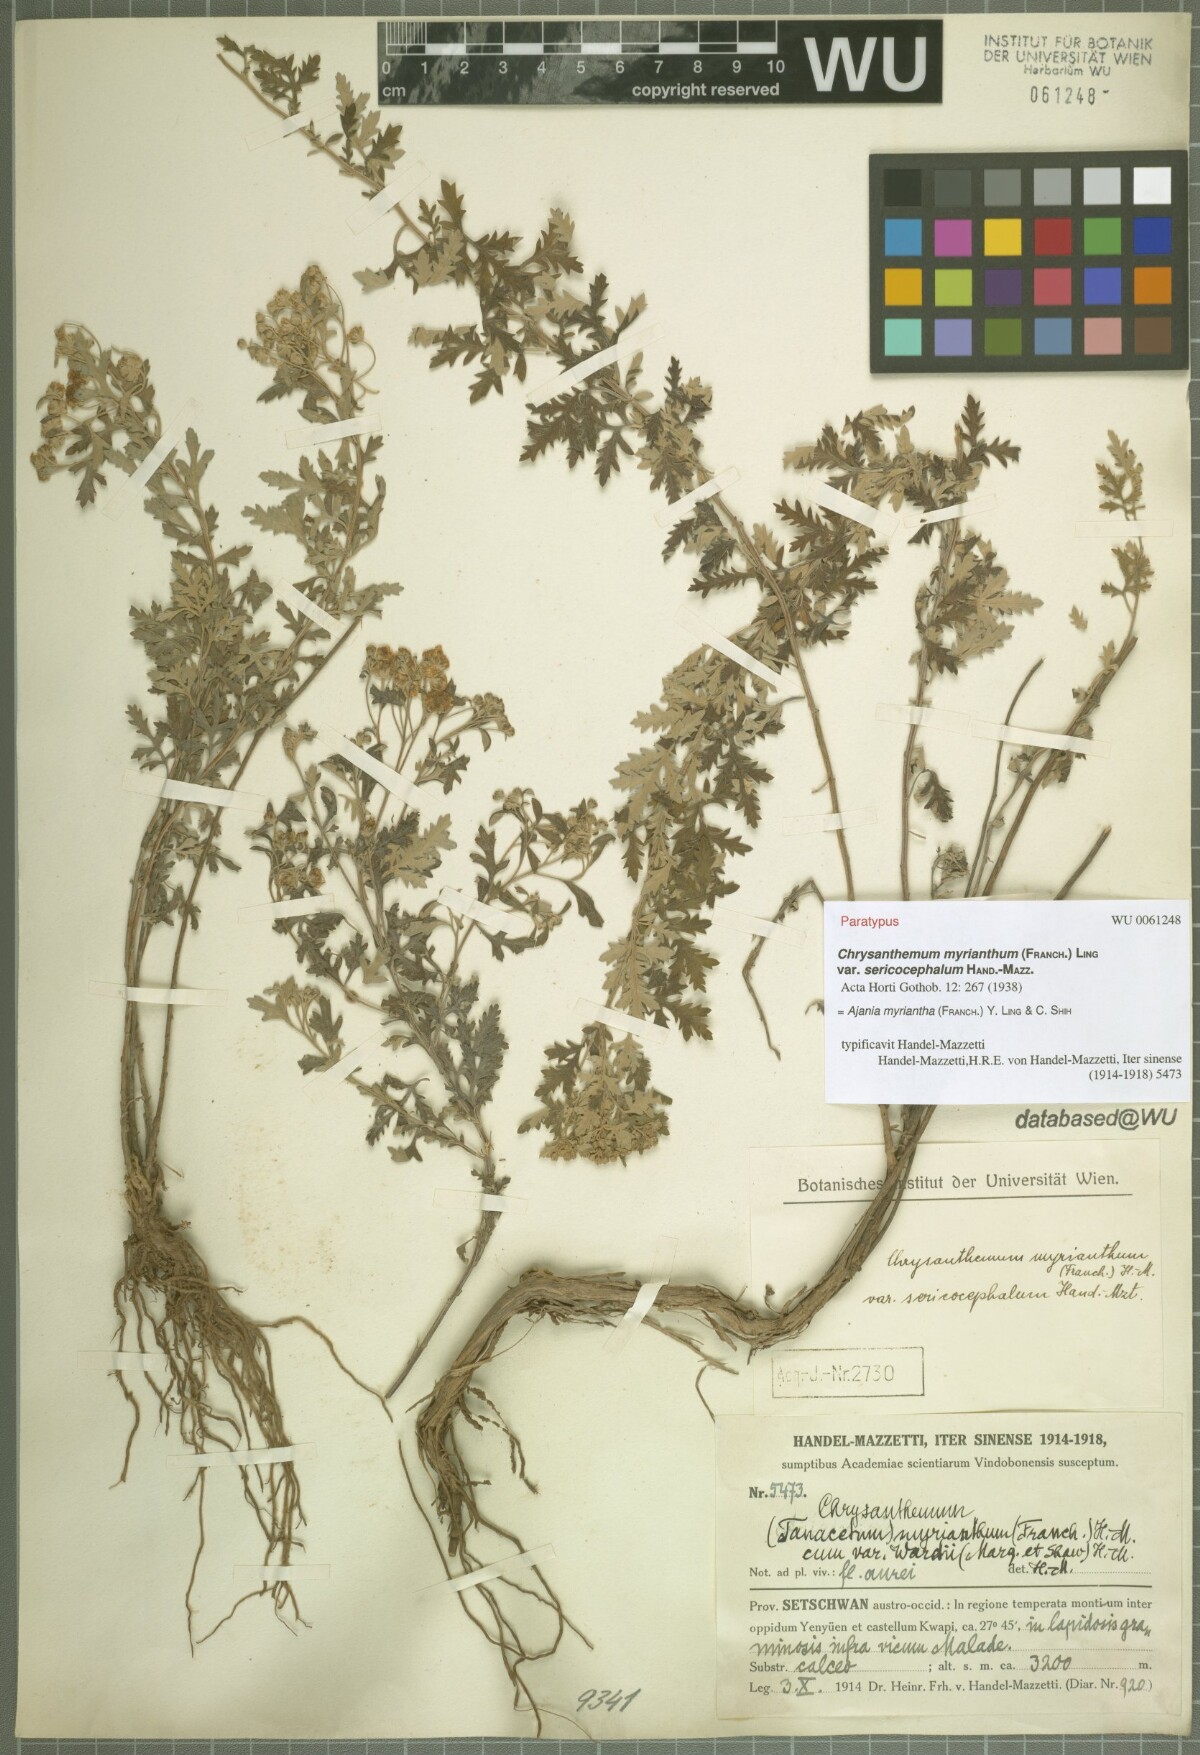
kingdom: Plantae
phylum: Tracheophyta
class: Magnoliopsida
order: Asterales
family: Asteraceae
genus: Ajania
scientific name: Ajania myriantha
